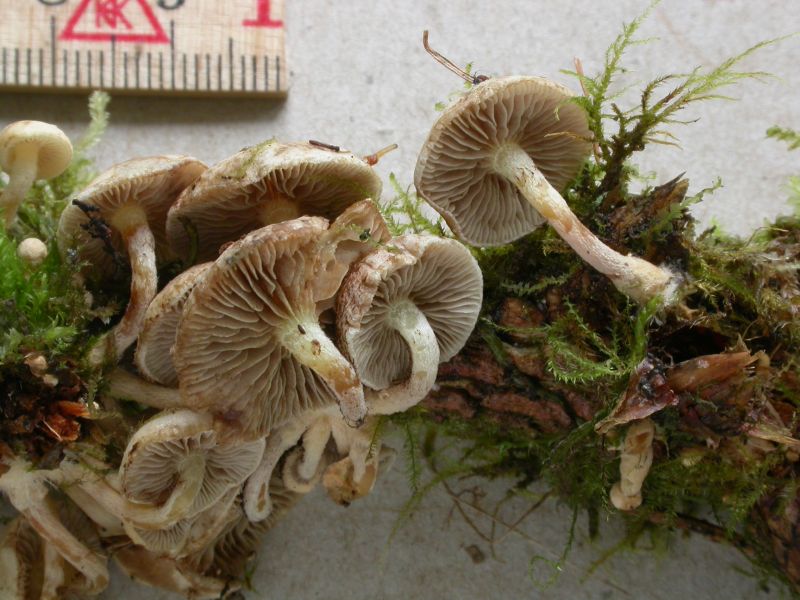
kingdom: Fungi
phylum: Basidiomycota
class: Agaricomycetes
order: Agaricales
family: Strophariaceae
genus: Pholiota
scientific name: Pholiota scamba
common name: dværg-skælhat
